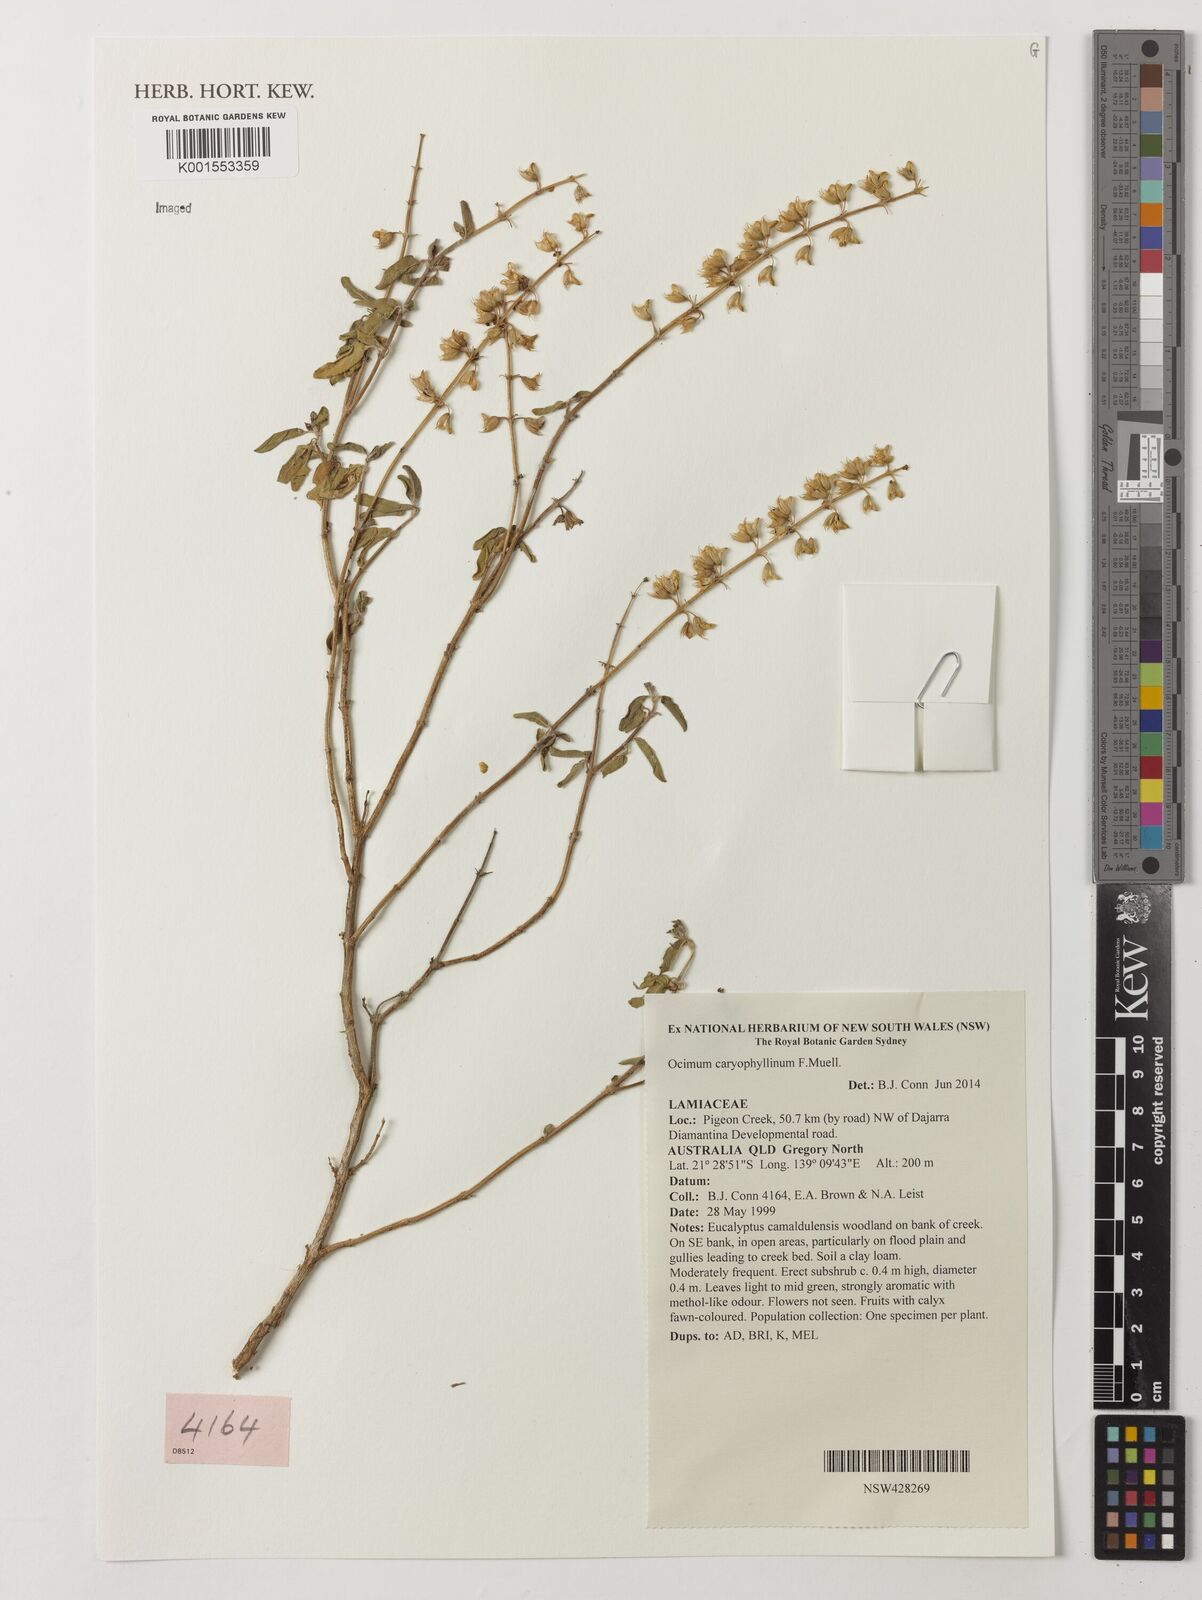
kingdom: Plantae
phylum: Tracheophyta
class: Magnoliopsida
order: Lamiales
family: Lamiaceae
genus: Ocimum
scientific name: Ocimum caryophyllinum
